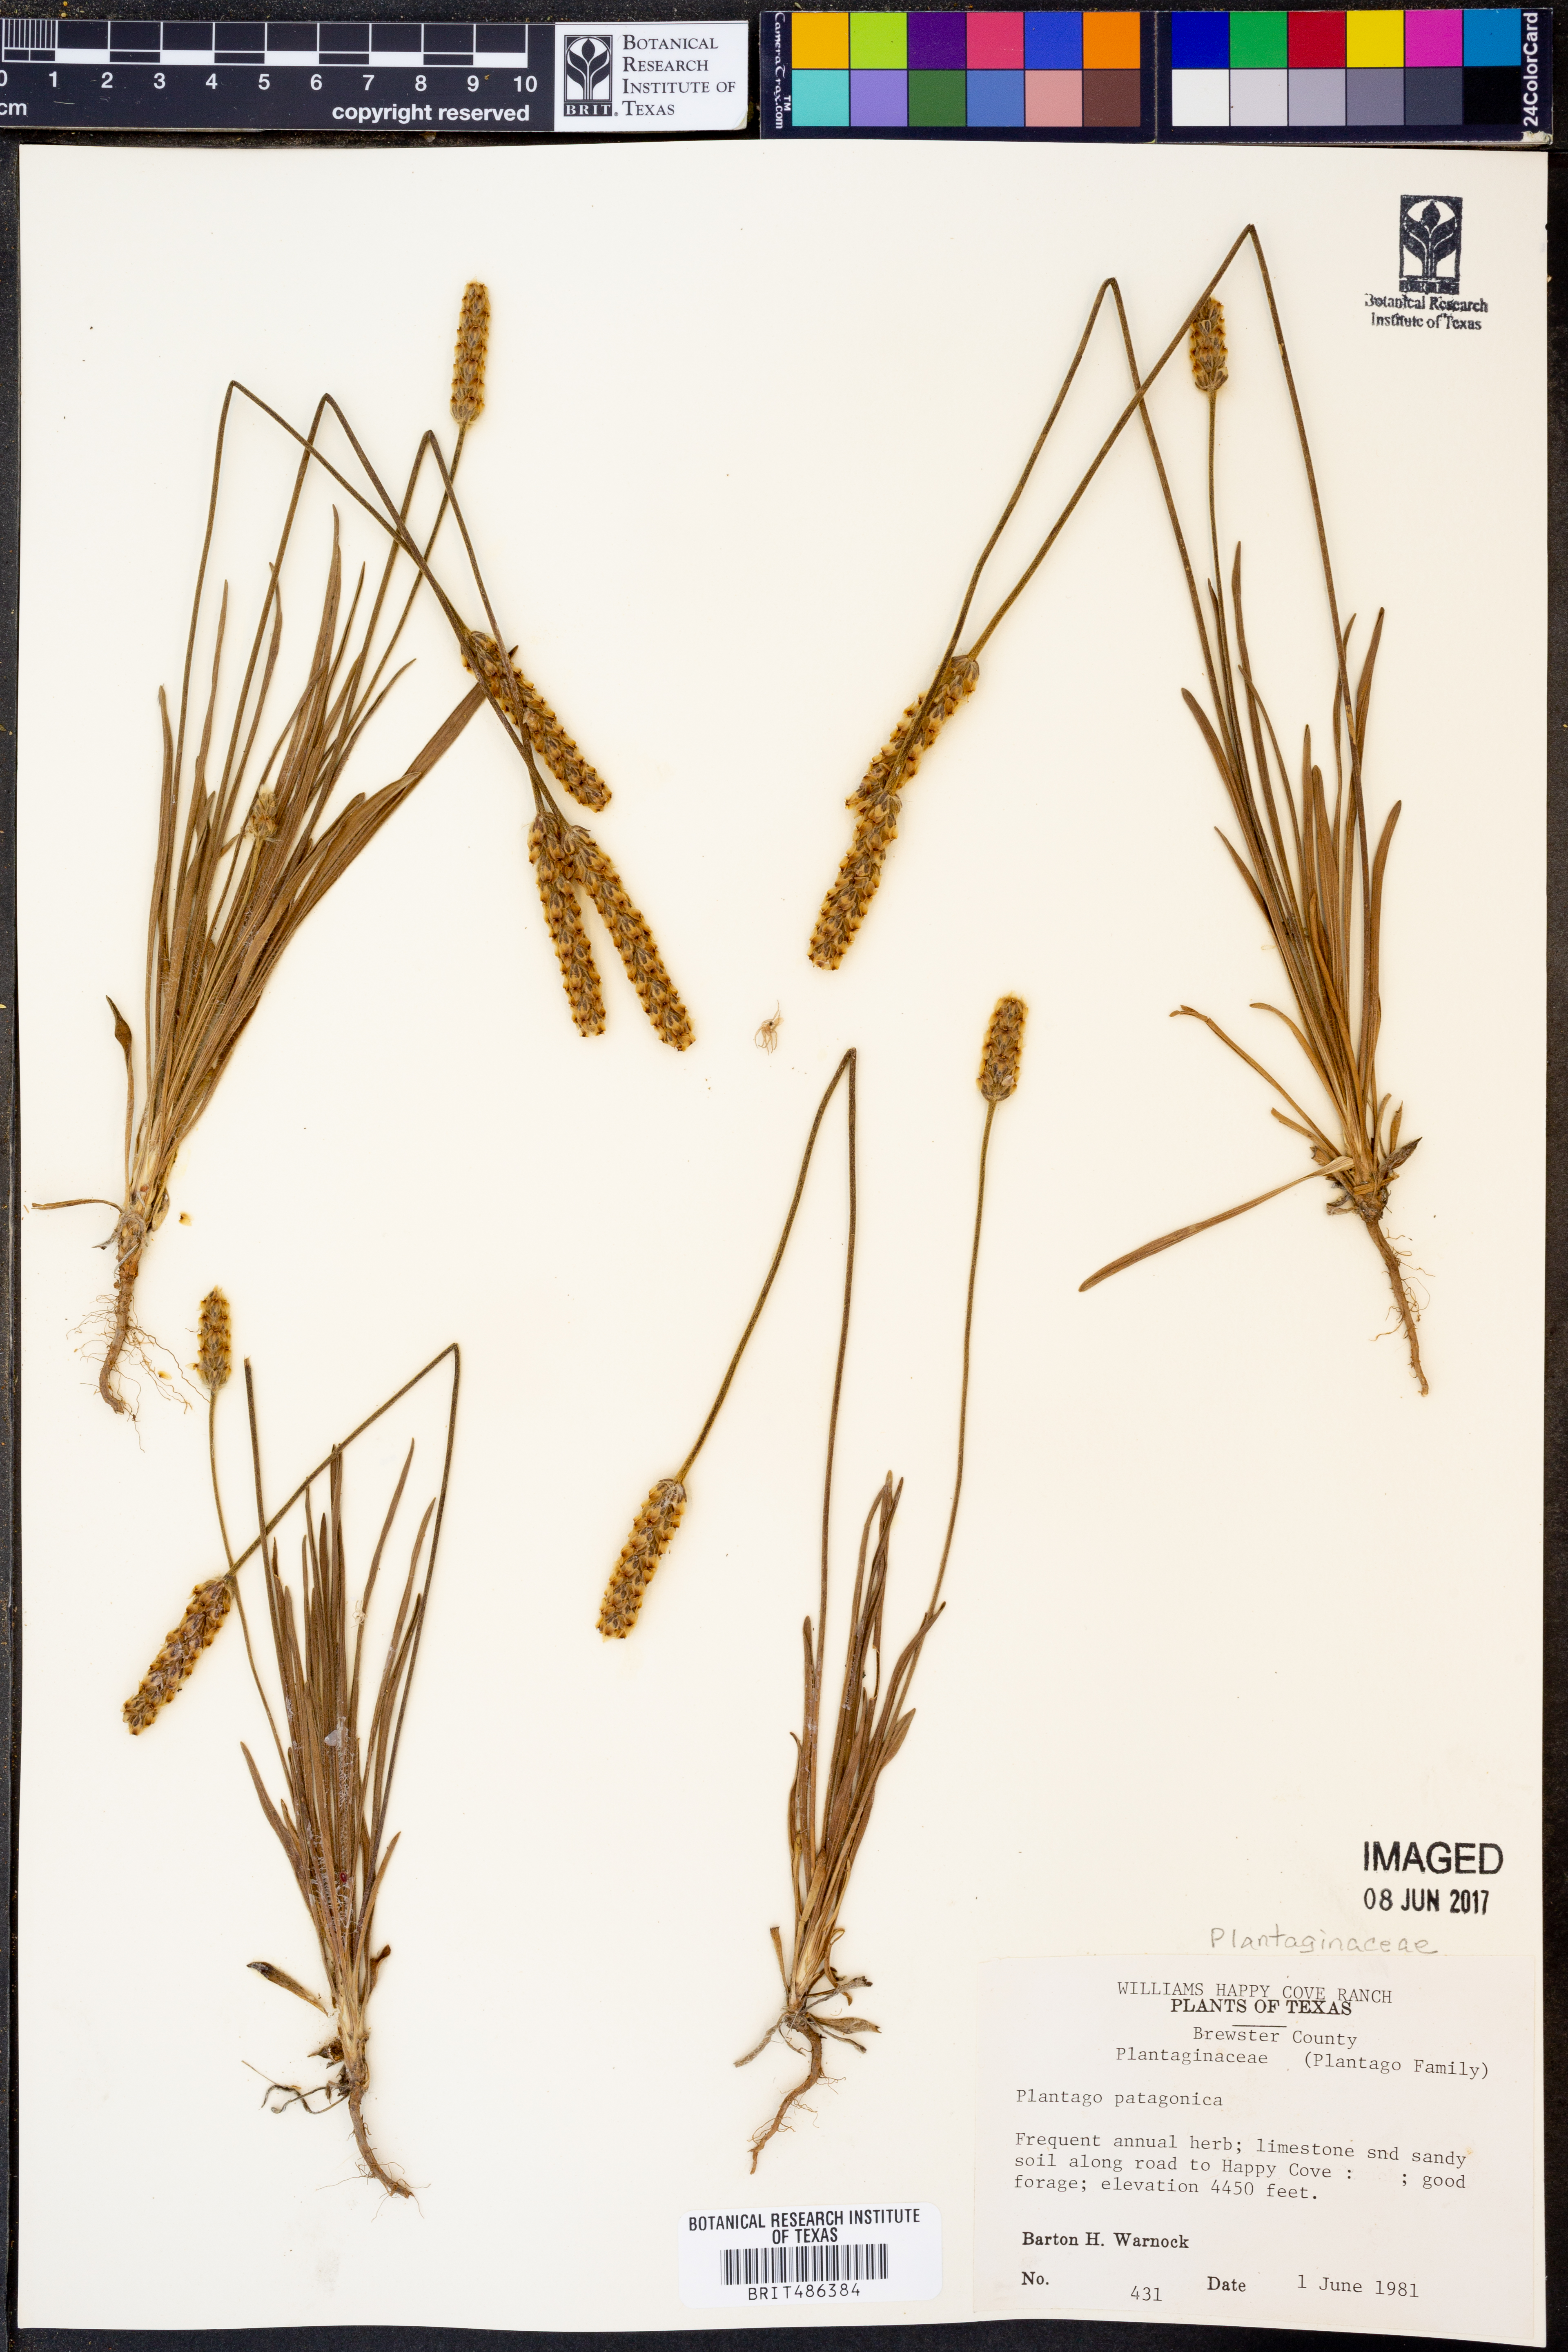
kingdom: Plantae
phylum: Tracheophyta
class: Magnoliopsida
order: Lamiales
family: Plantaginaceae
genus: Plantago
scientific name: Plantago patagonica
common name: Patagonia indian-wheat
